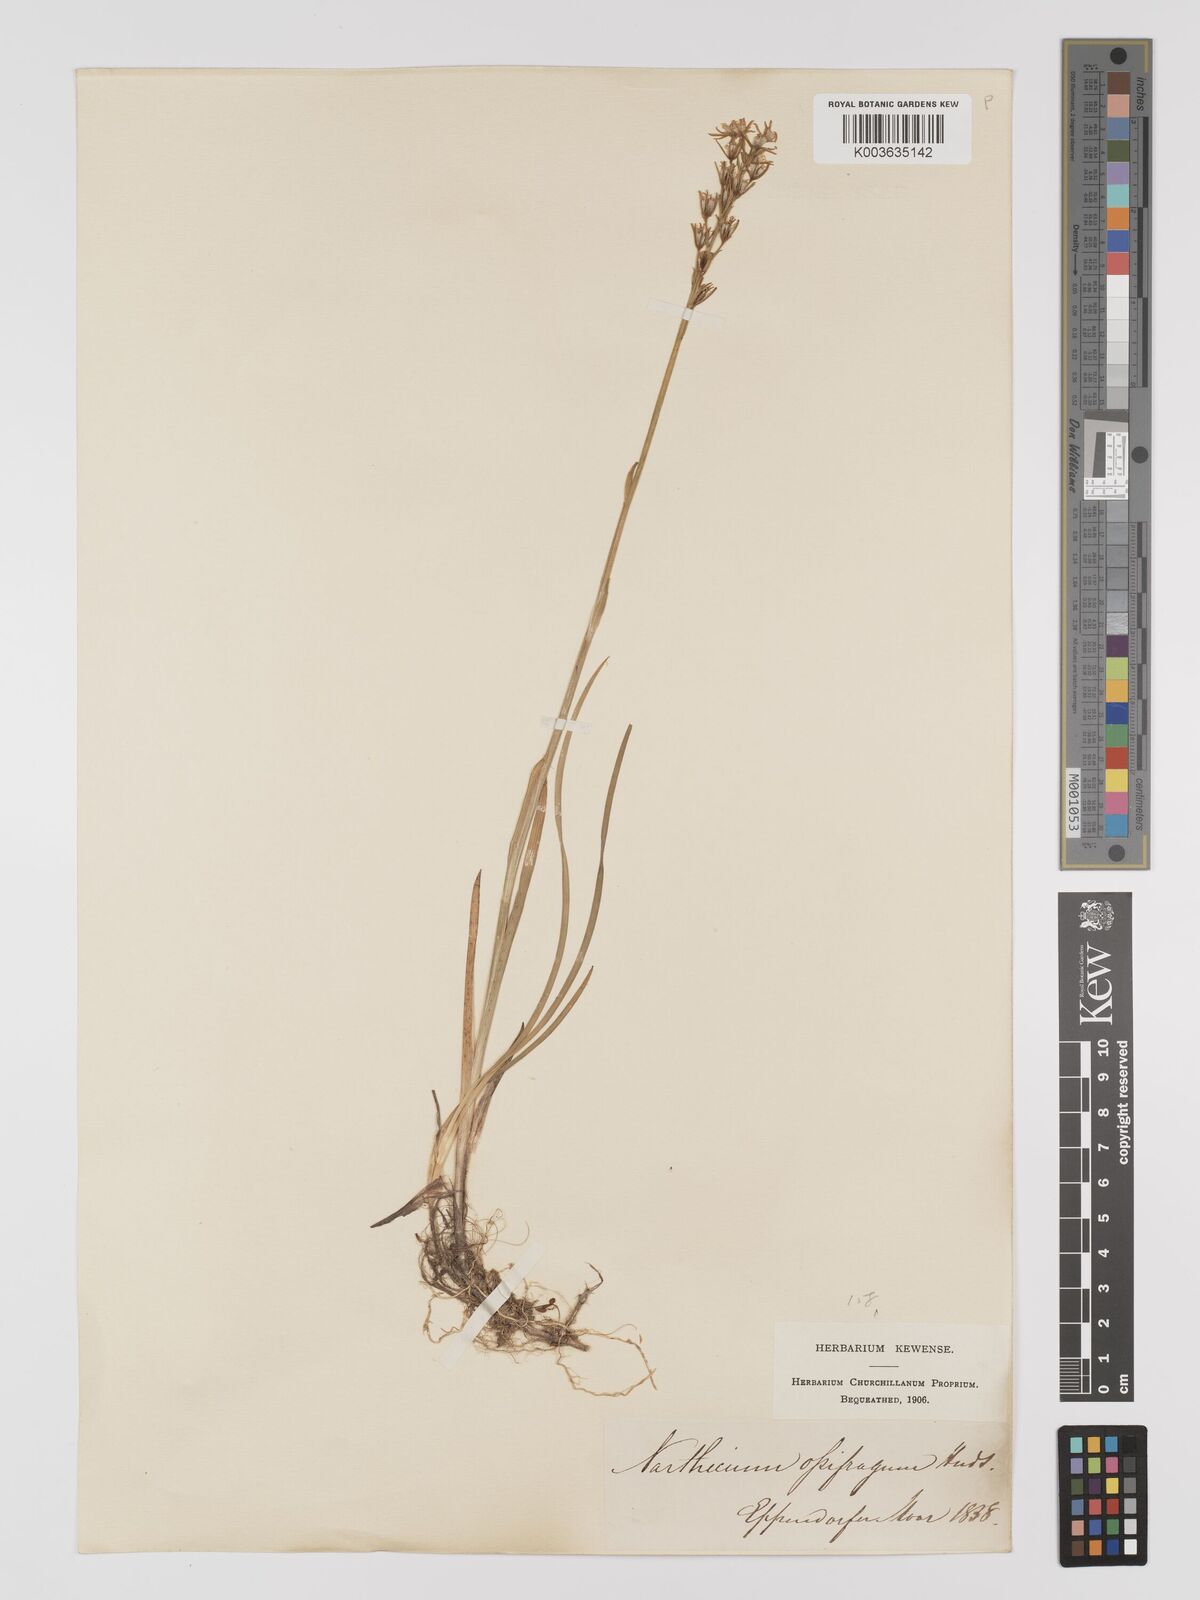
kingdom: Plantae
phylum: Tracheophyta
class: Liliopsida
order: Dioscoreales
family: Nartheciaceae
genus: Narthecium
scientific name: Narthecium ossifragum
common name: Bog asphodel
